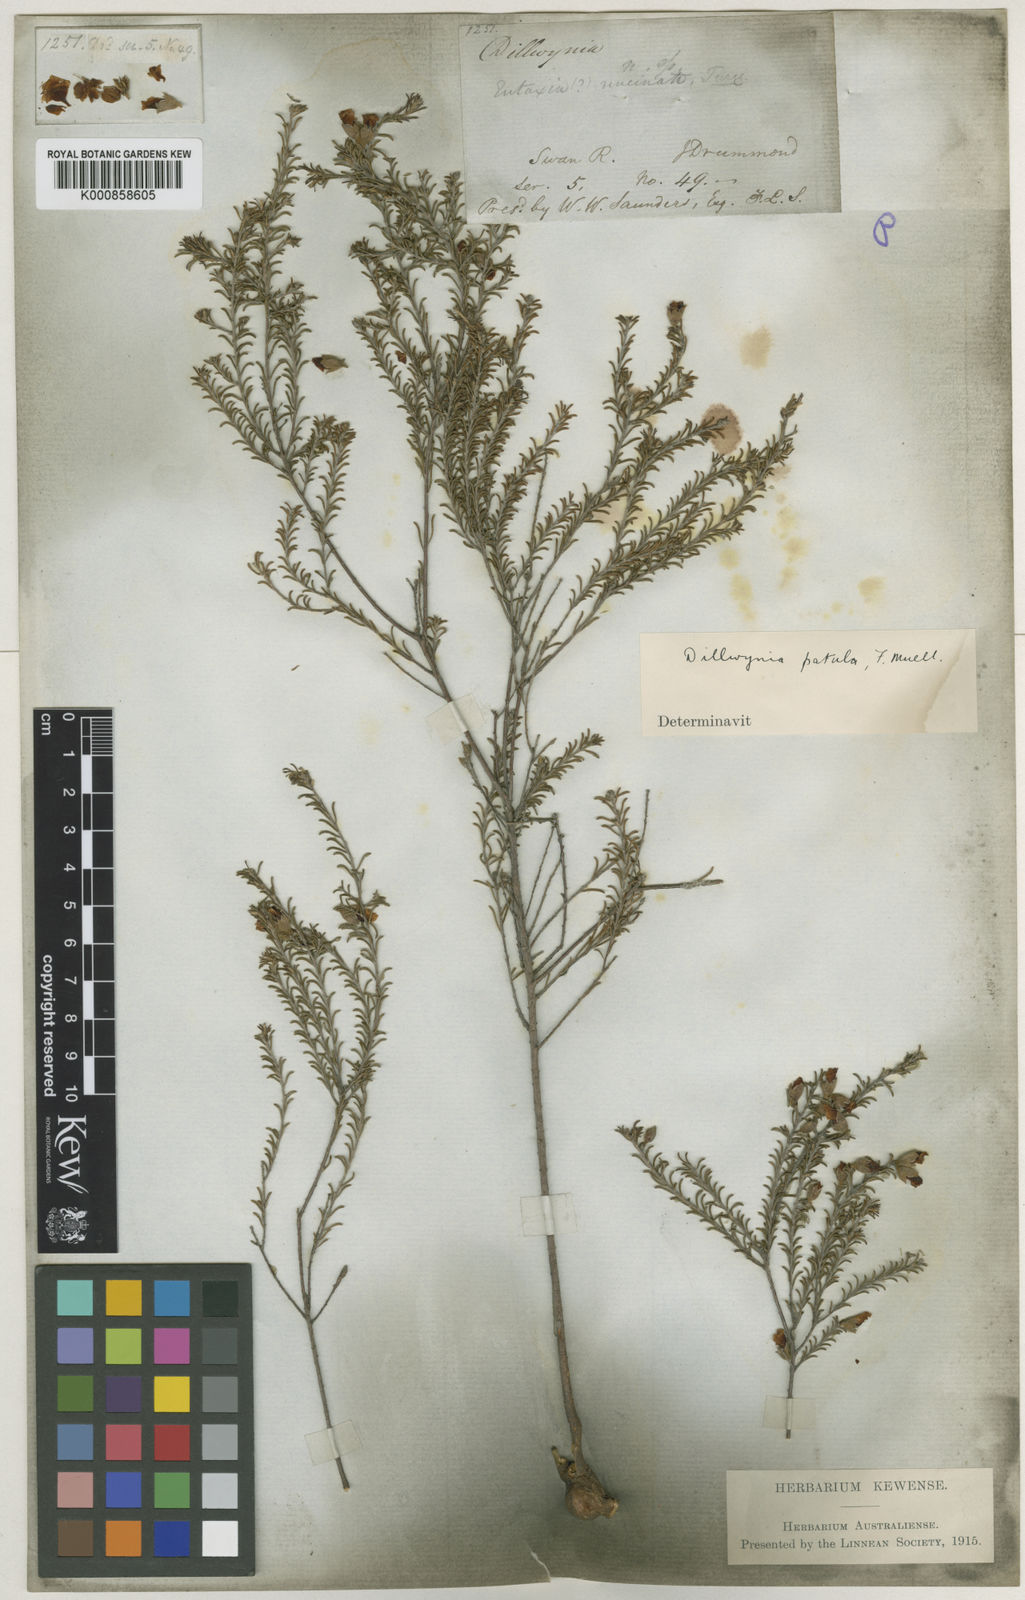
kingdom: Plantae
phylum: Tracheophyta
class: Magnoliopsida
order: Fabales
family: Fabaceae
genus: Dillwynia
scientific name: Dillwynia uncinata
